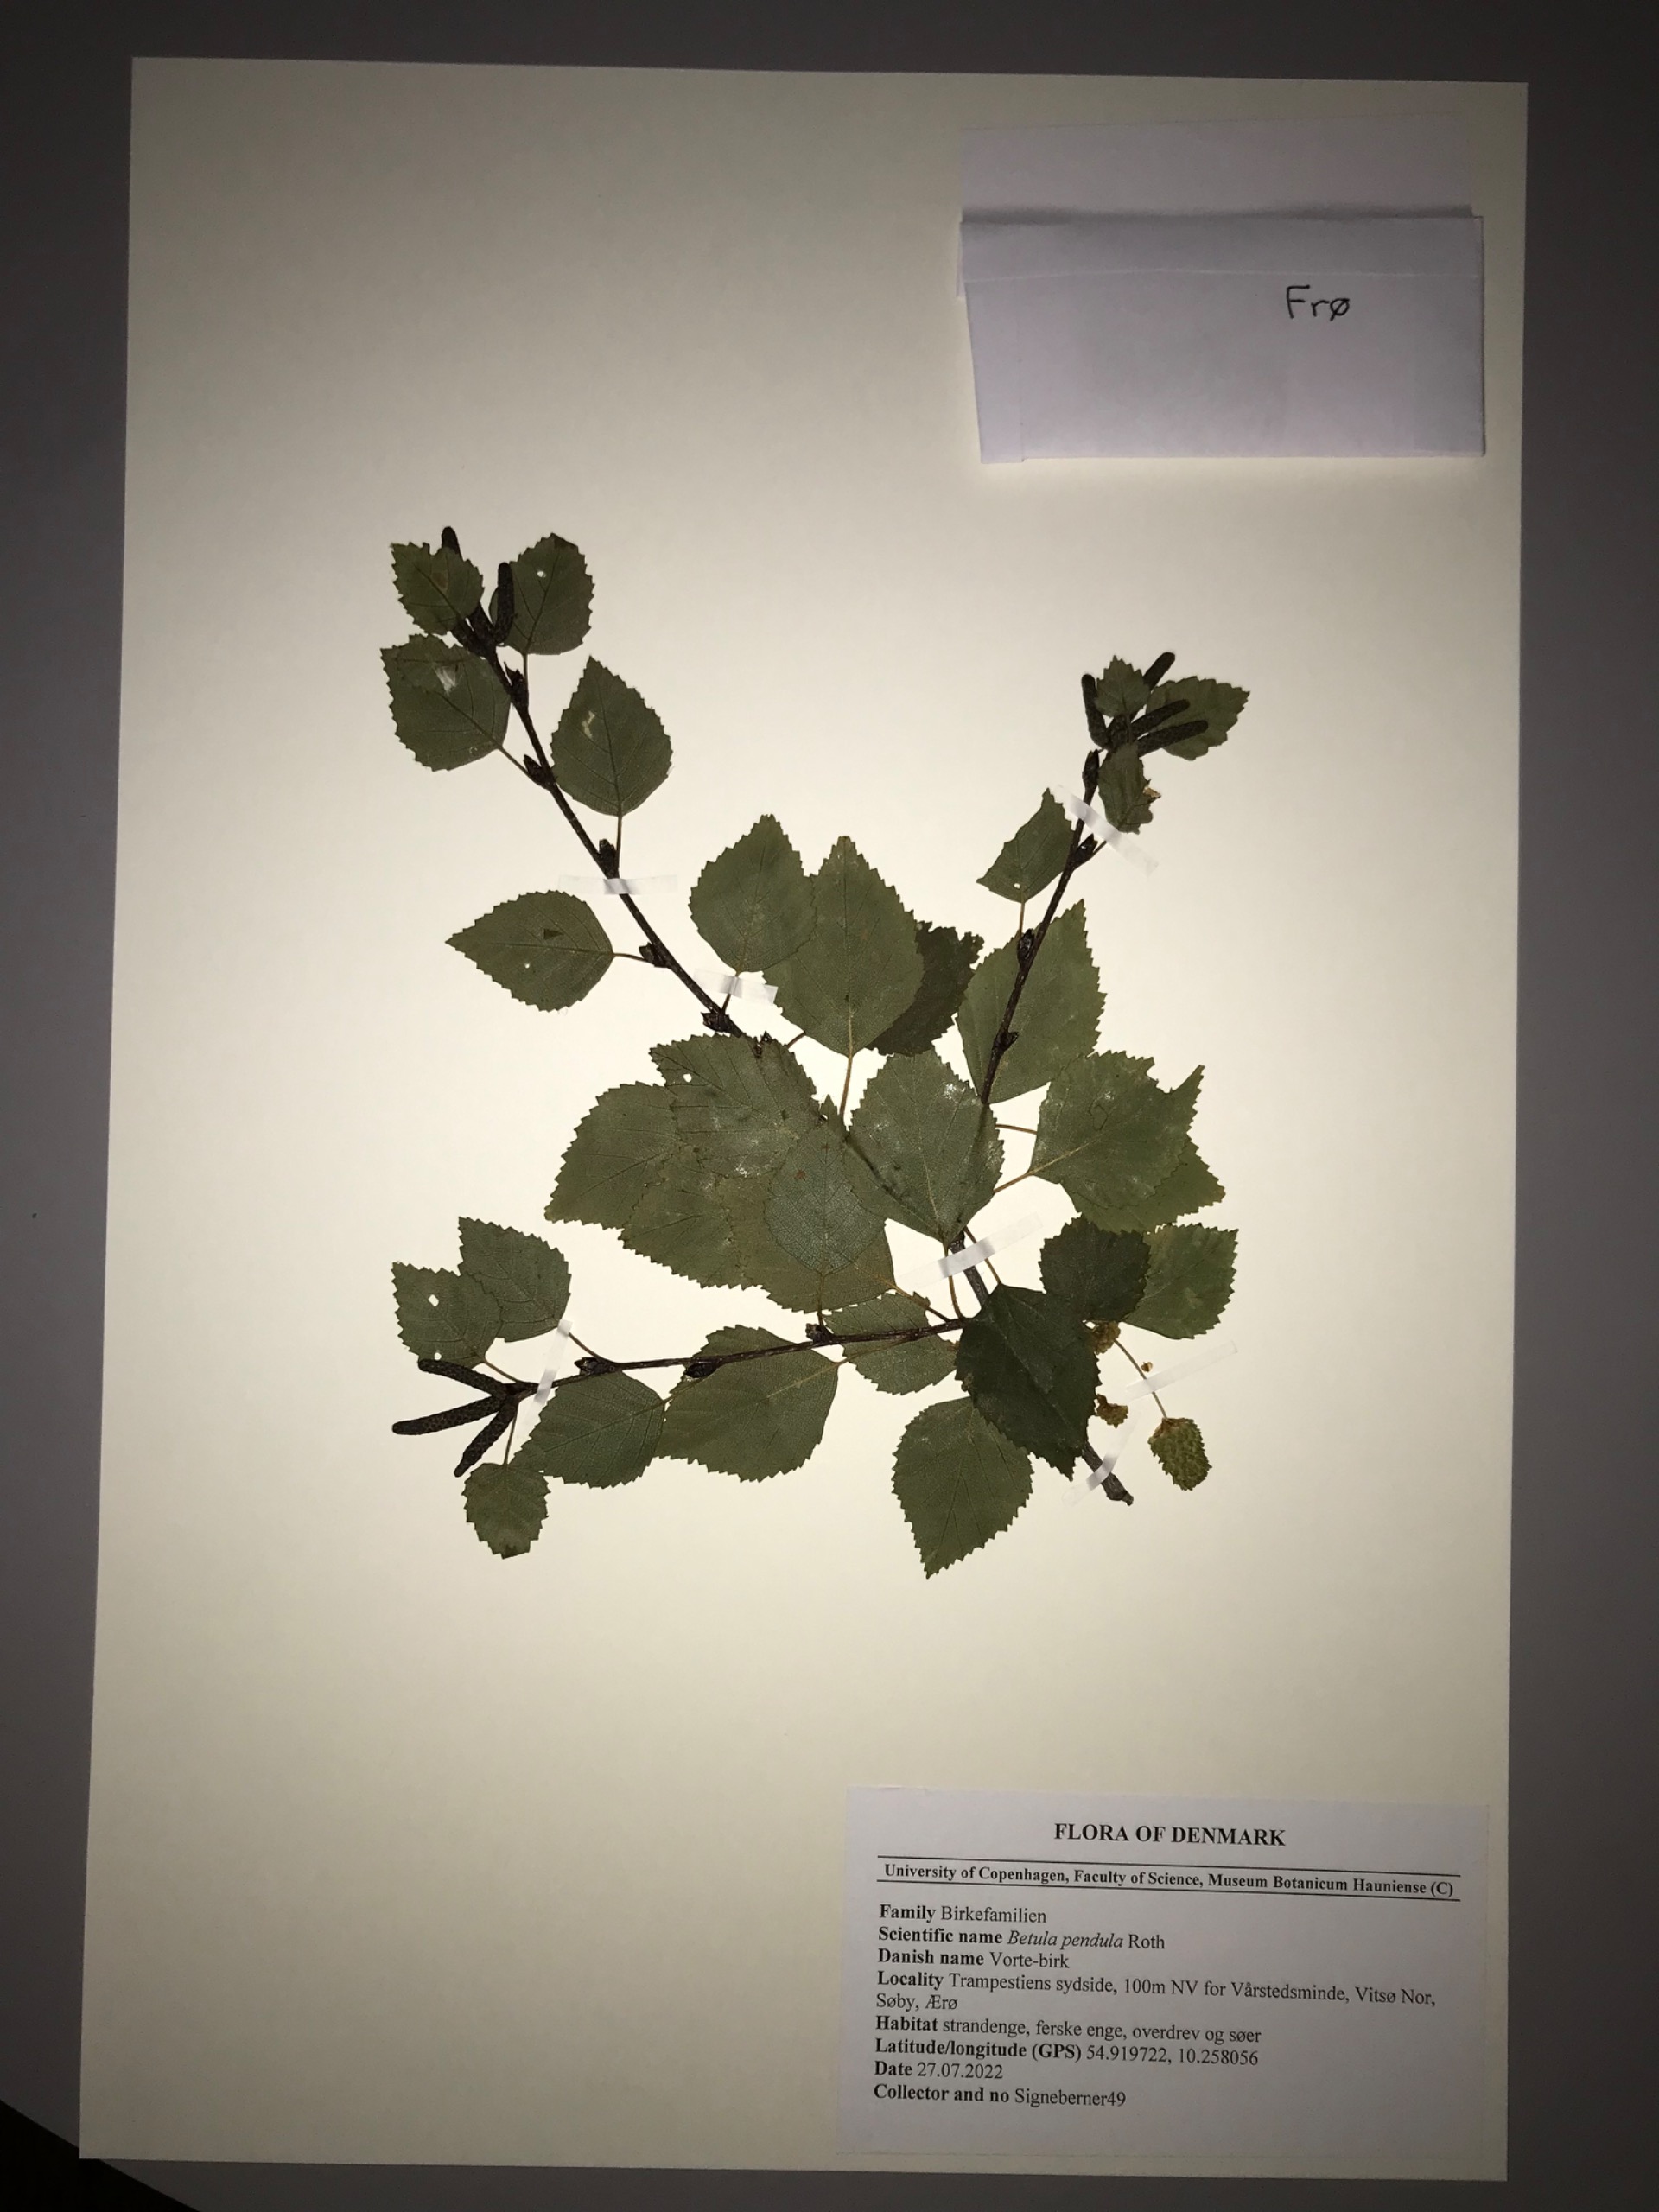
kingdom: Plantae
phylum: Tracheophyta
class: Magnoliopsida
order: Fagales
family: Betulaceae
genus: Betula
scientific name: Betula pendula
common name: Vorte-birk
